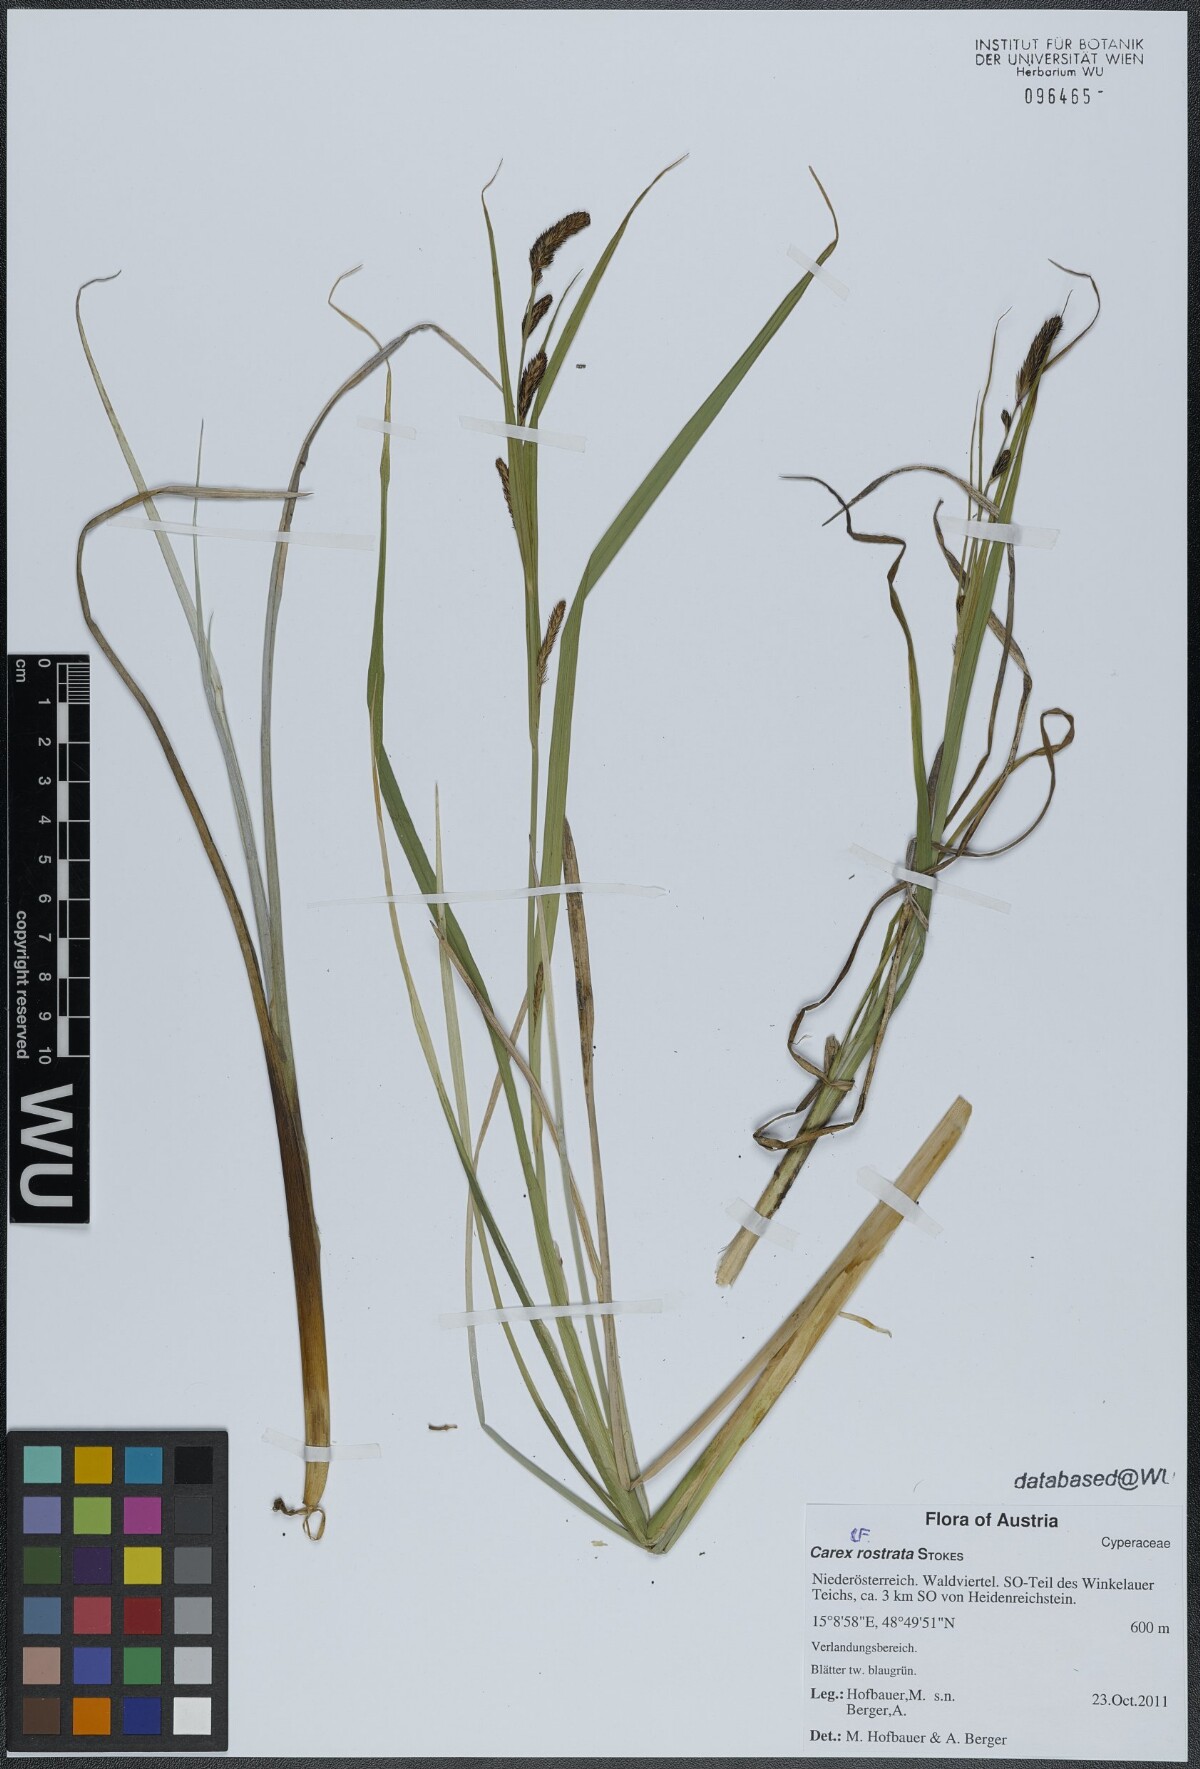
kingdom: Plantae
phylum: Tracheophyta
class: Liliopsida
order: Poales
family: Cyperaceae
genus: Carex
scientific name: Carex rostrata
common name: Bottle sedge
